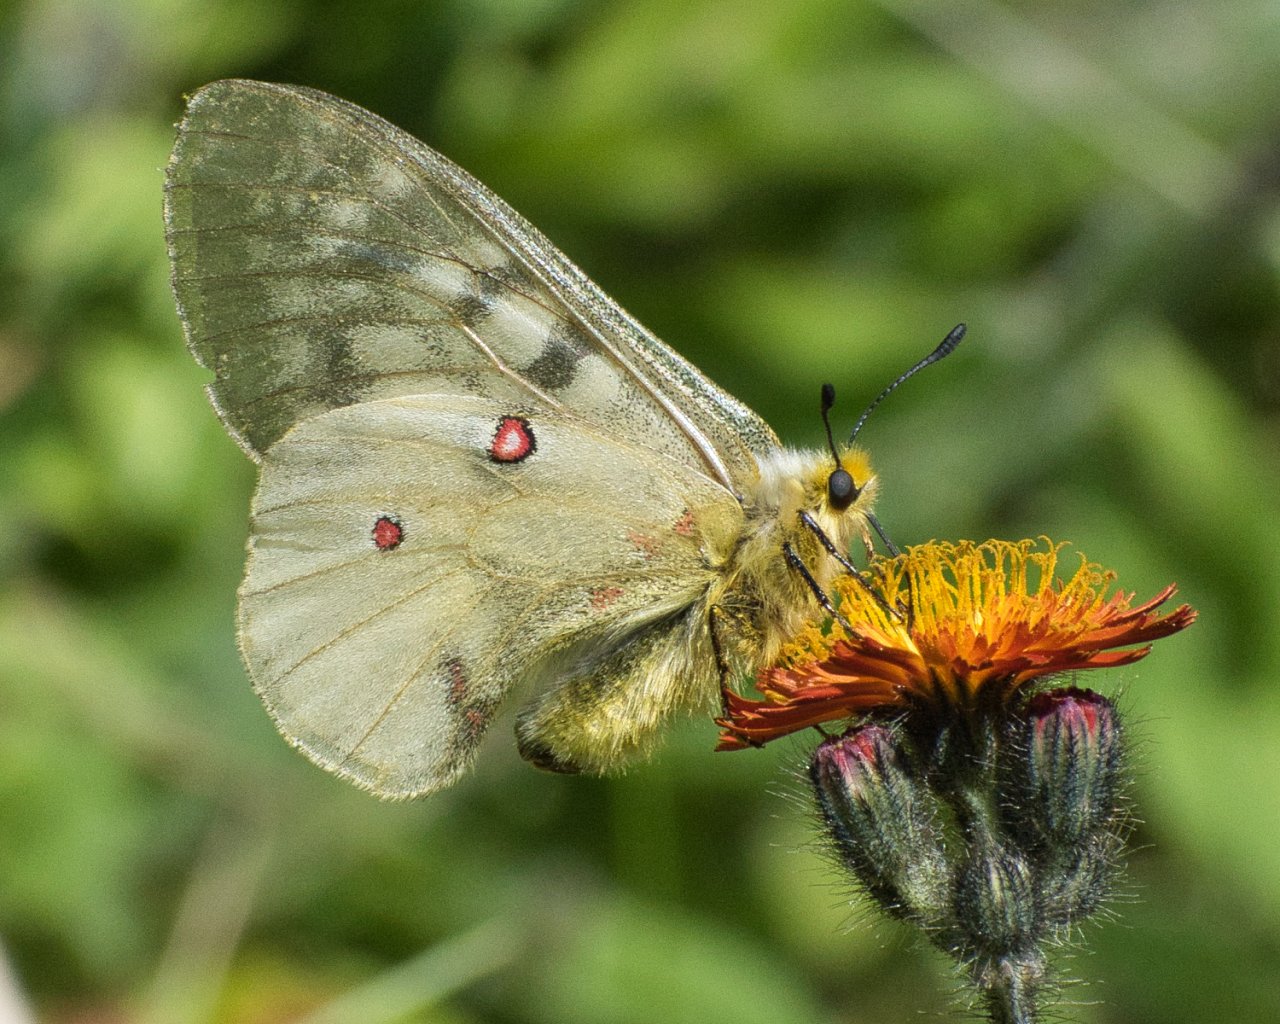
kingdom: Animalia
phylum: Arthropoda
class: Insecta
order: Lepidoptera
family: Papilionidae
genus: Parnassius
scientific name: Parnassius clodius
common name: Clodius Parnassian
